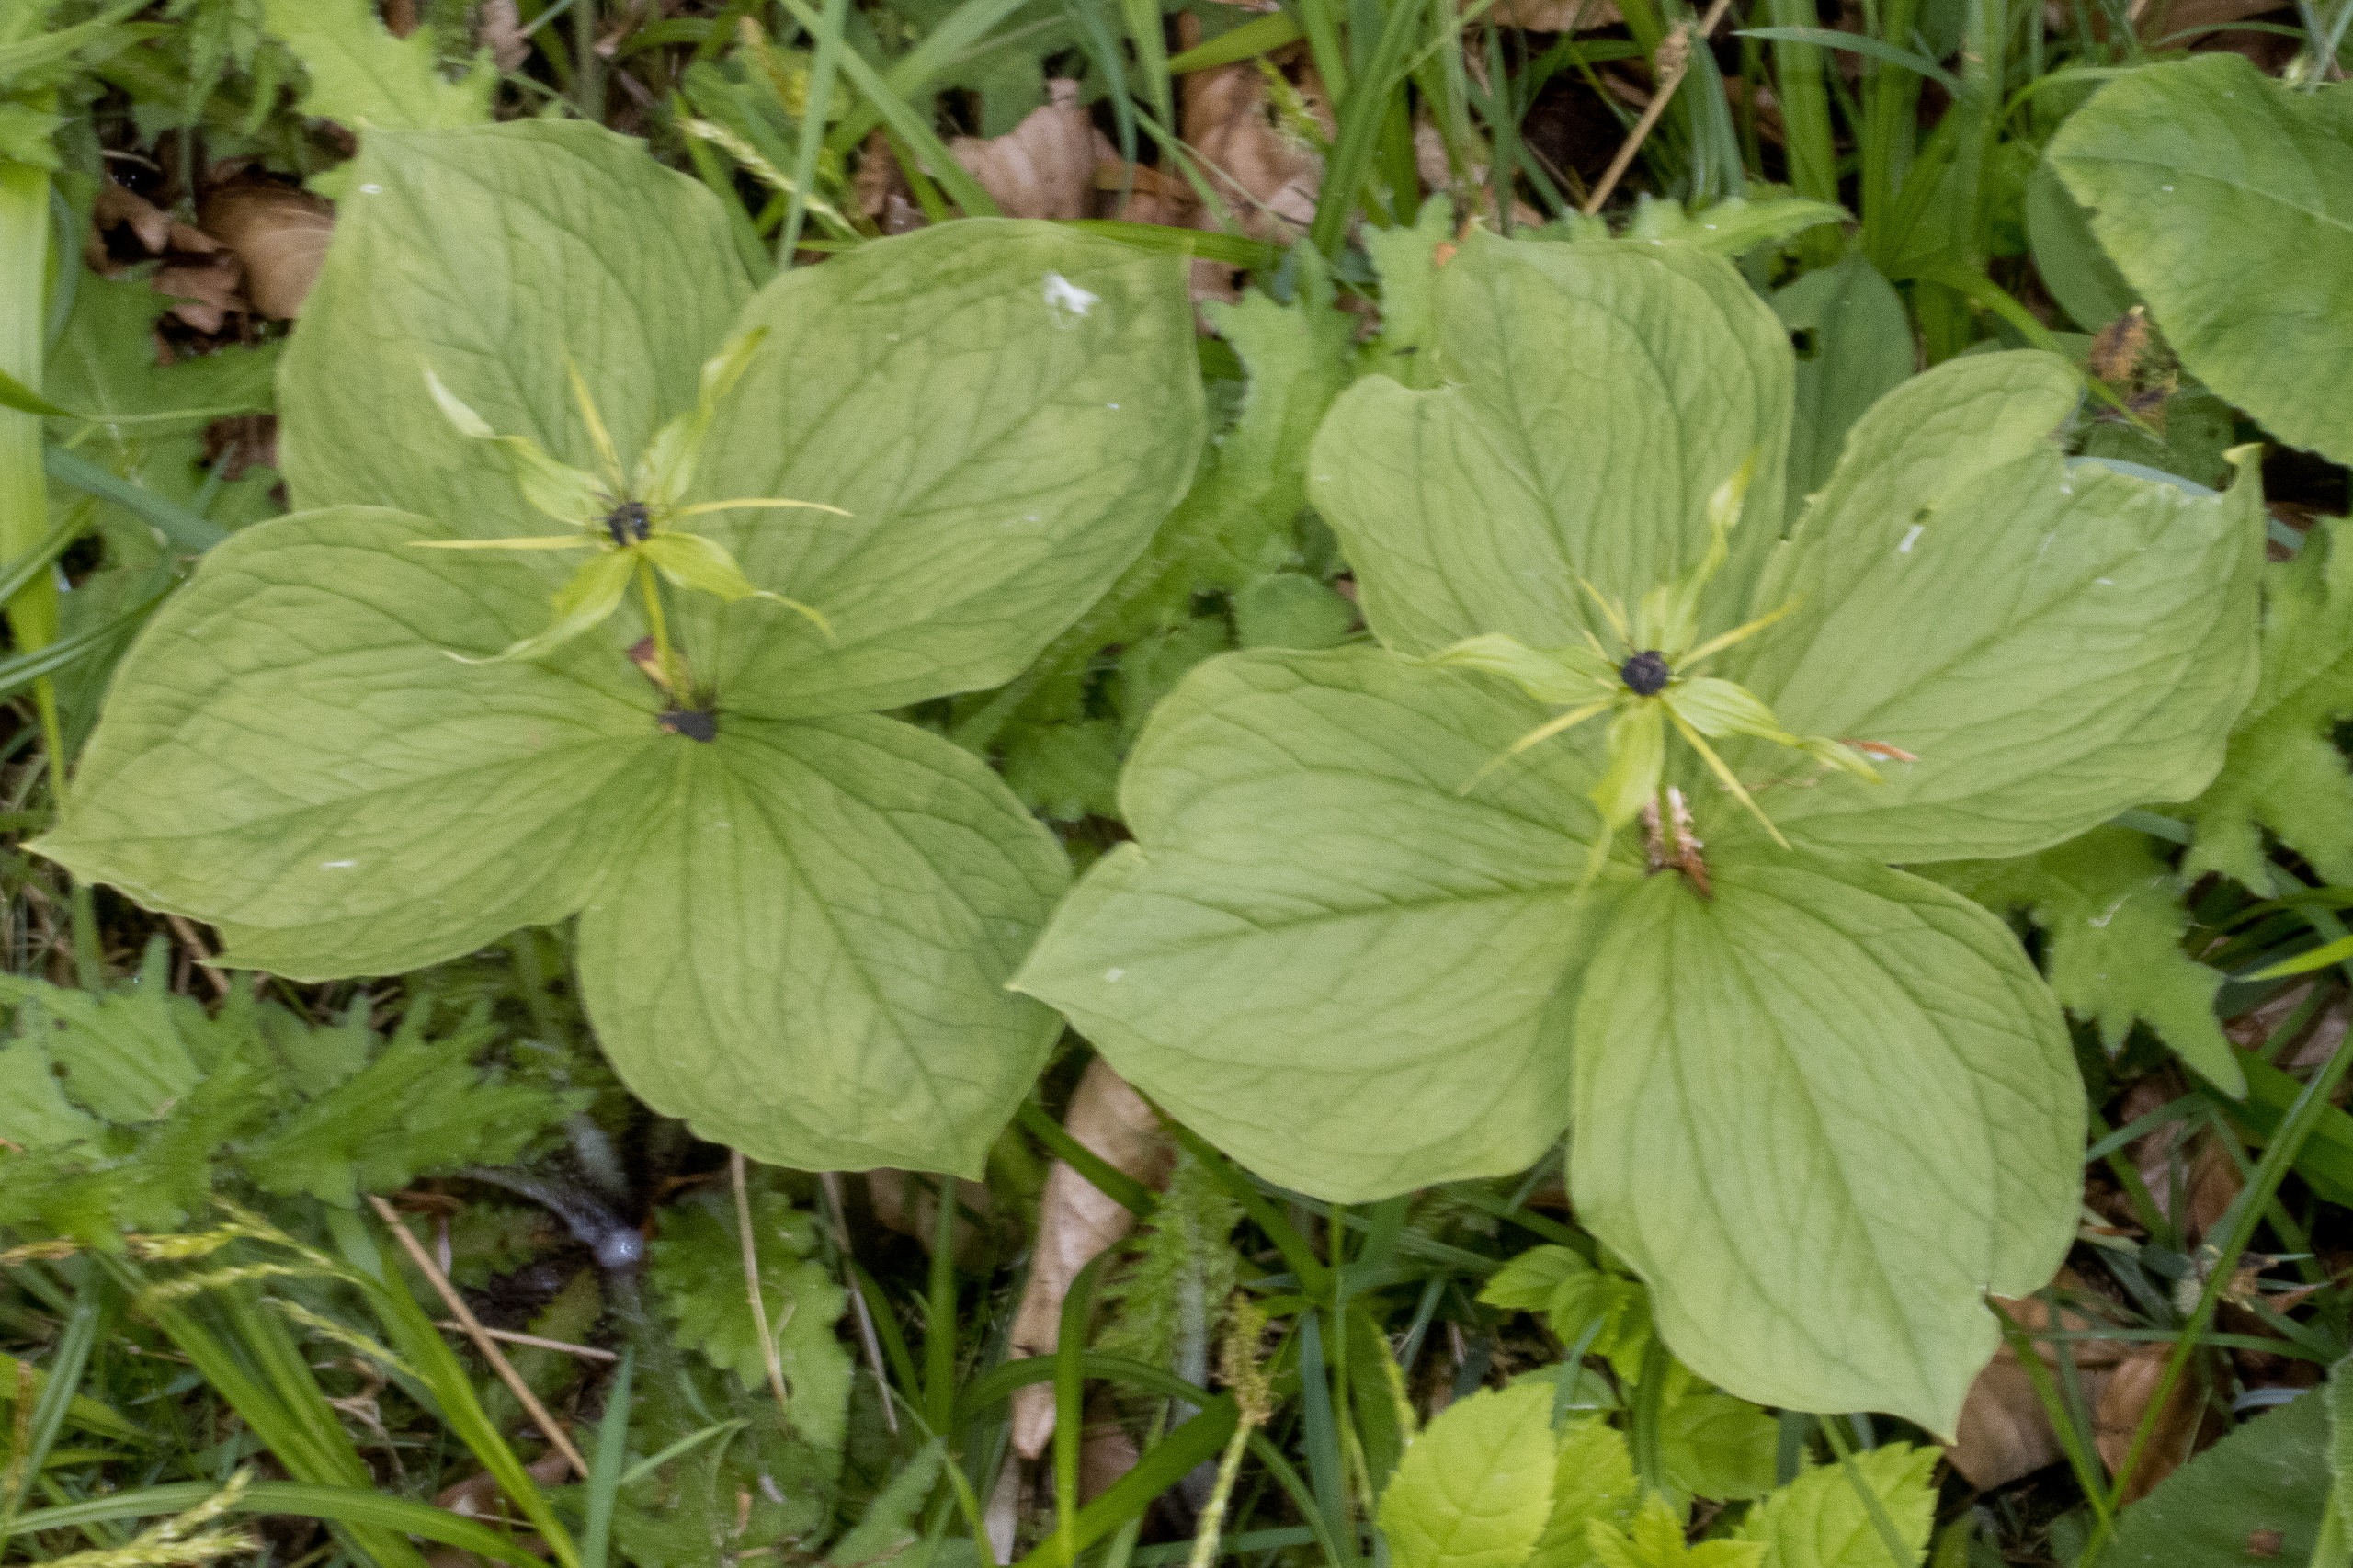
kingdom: Plantae
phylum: Tracheophyta
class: Liliopsida
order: Liliales
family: Melanthiaceae
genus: Paris
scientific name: Paris quadrifolia
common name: Firblad
